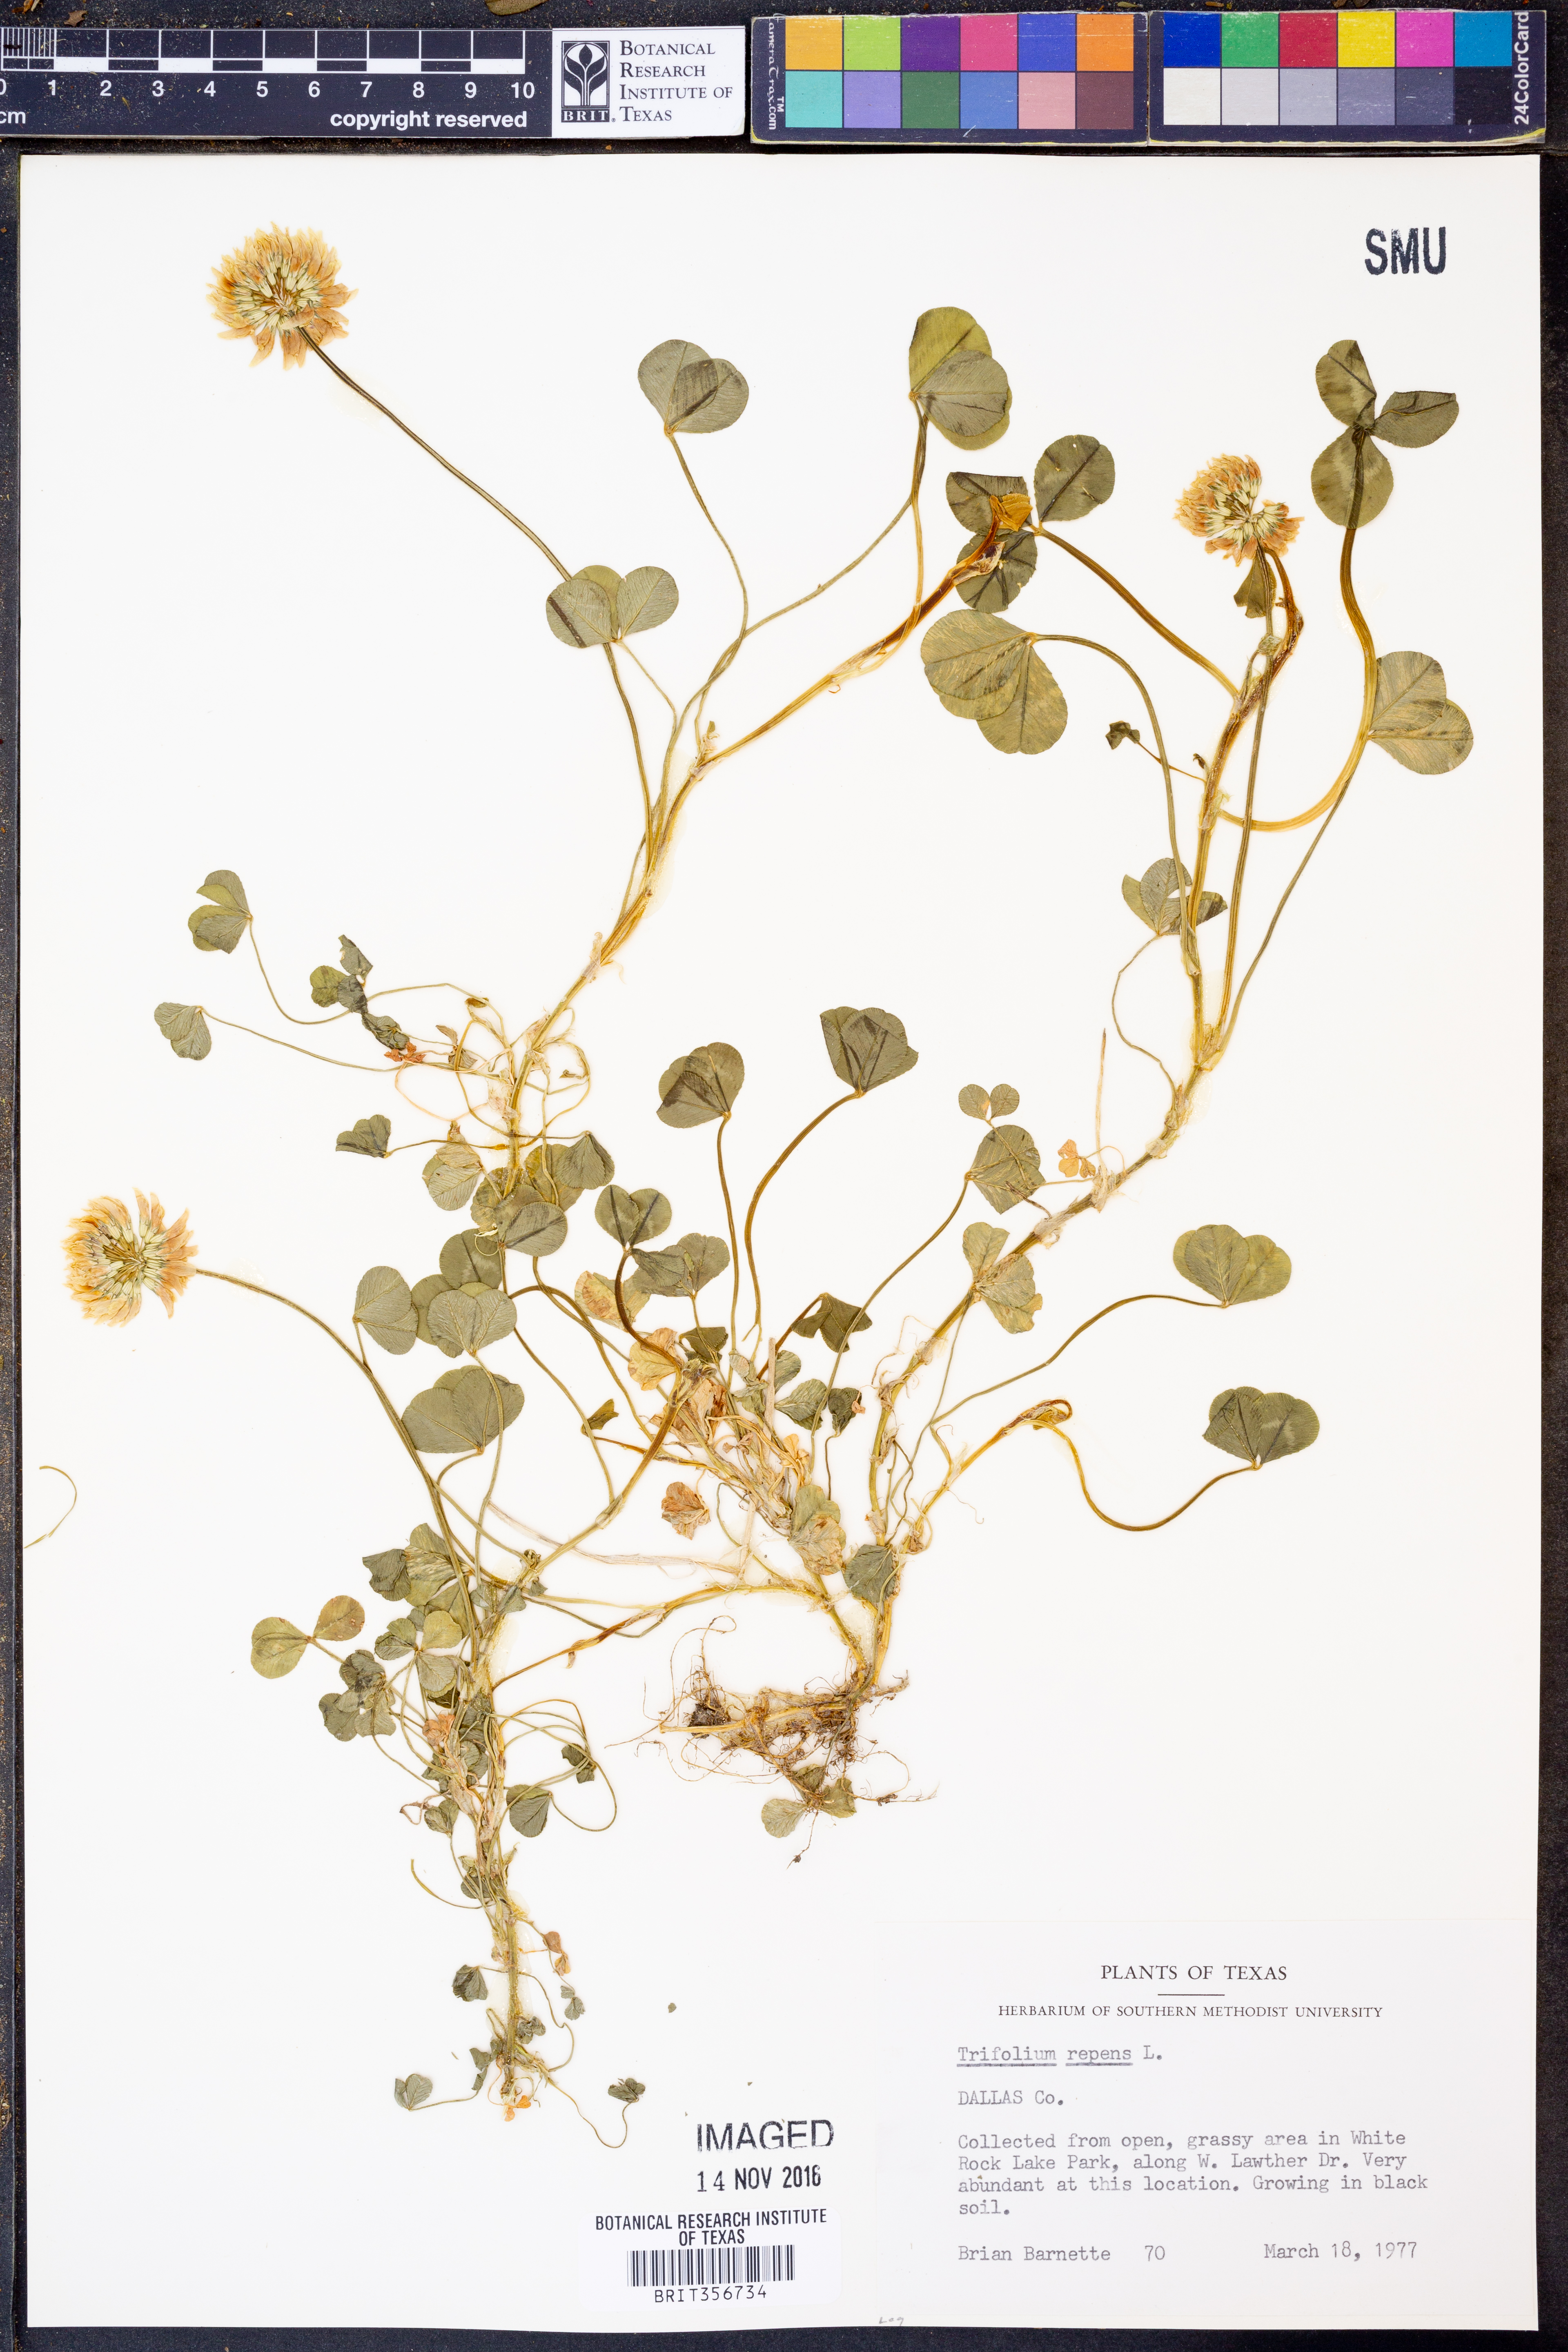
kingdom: Plantae
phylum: Tracheophyta
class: Magnoliopsida
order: Fabales
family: Fabaceae
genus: Trifolium
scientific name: Trifolium repens
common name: White clover
